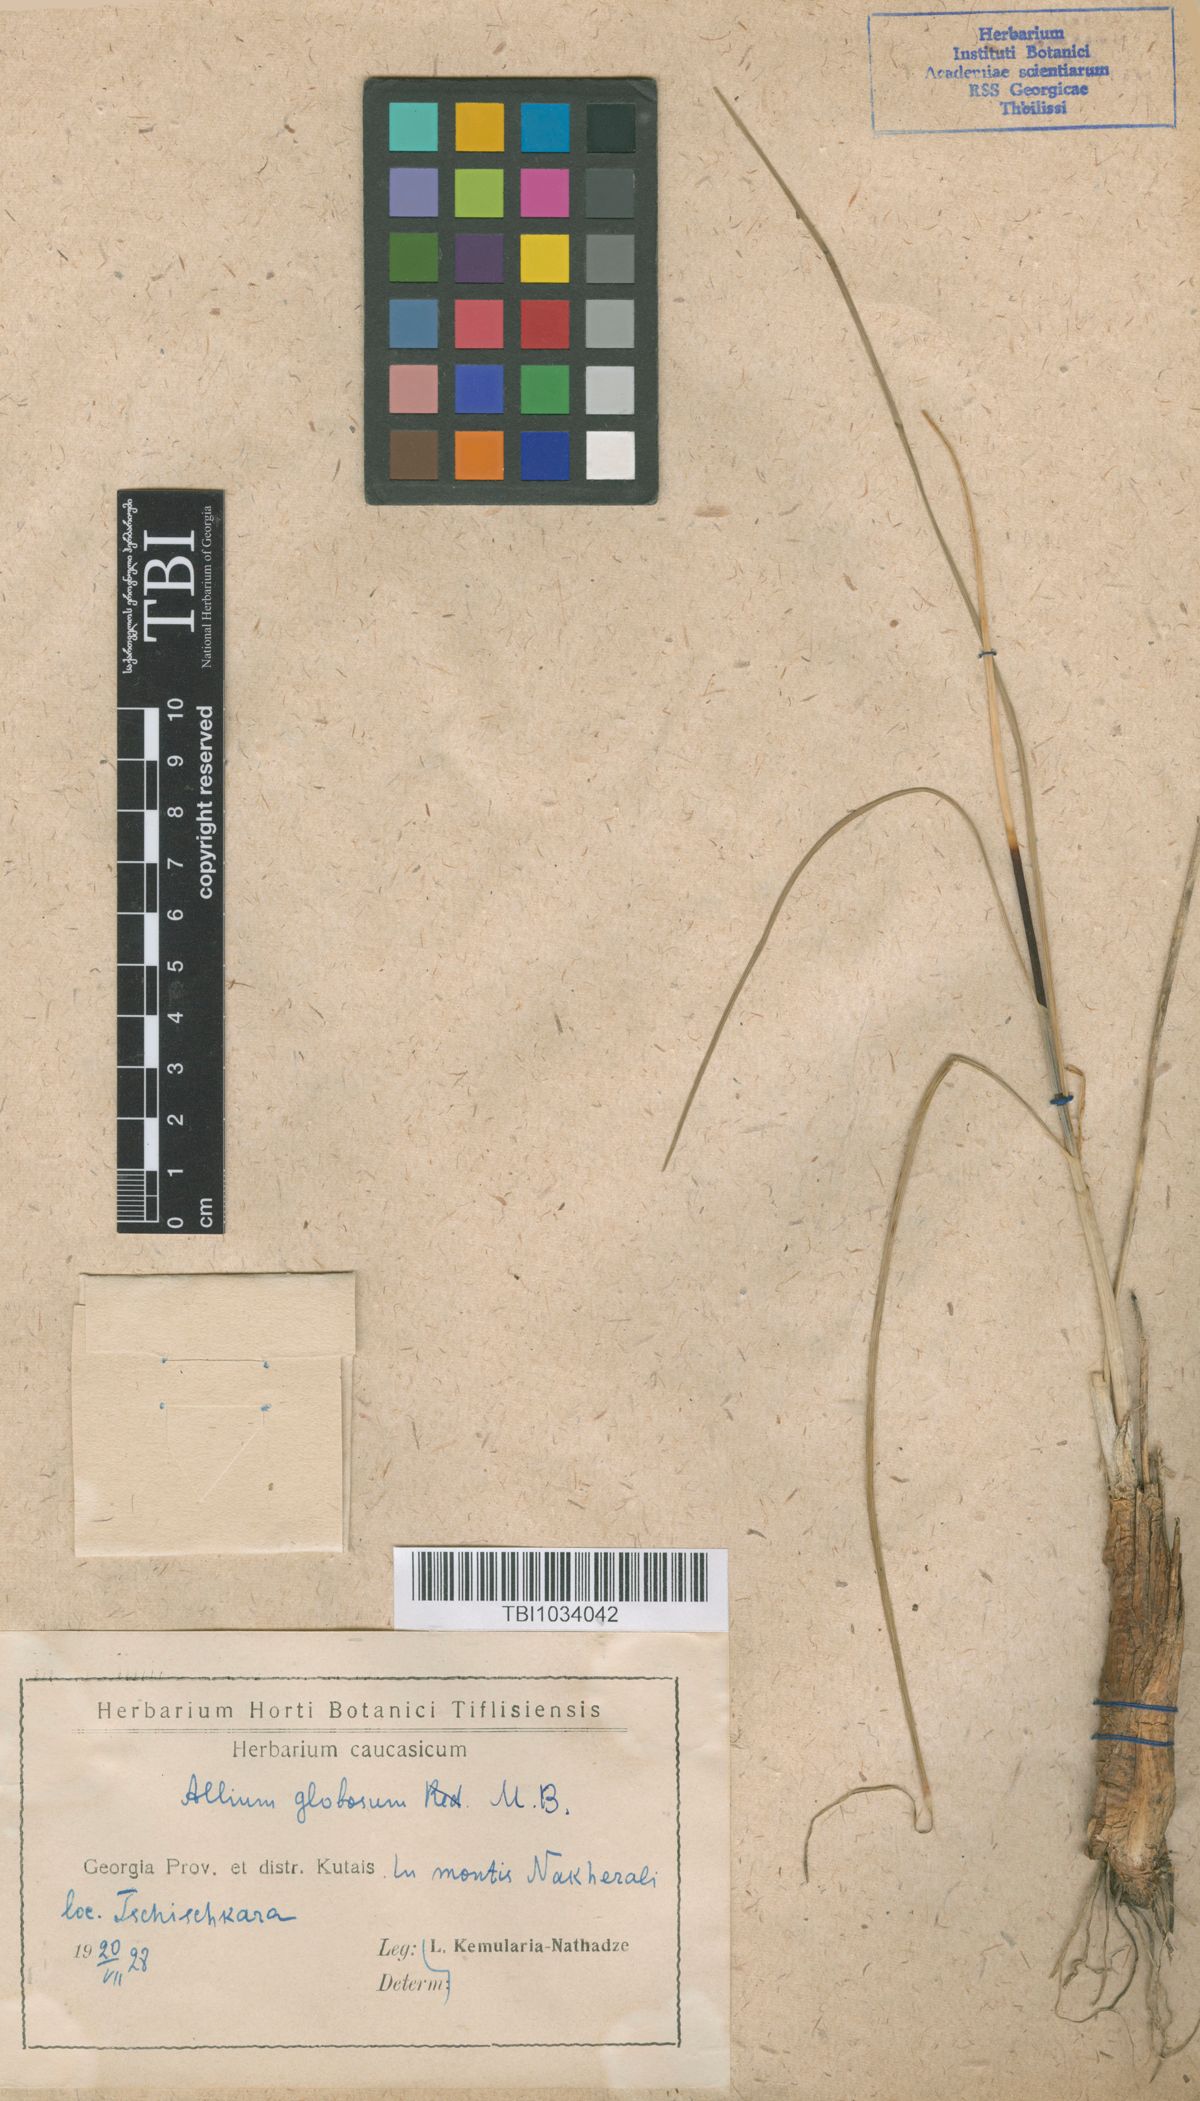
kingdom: Plantae
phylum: Tracheophyta
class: Liliopsida
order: Asparagales
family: Amaryllidaceae
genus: Allium
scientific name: Allium saxatile
